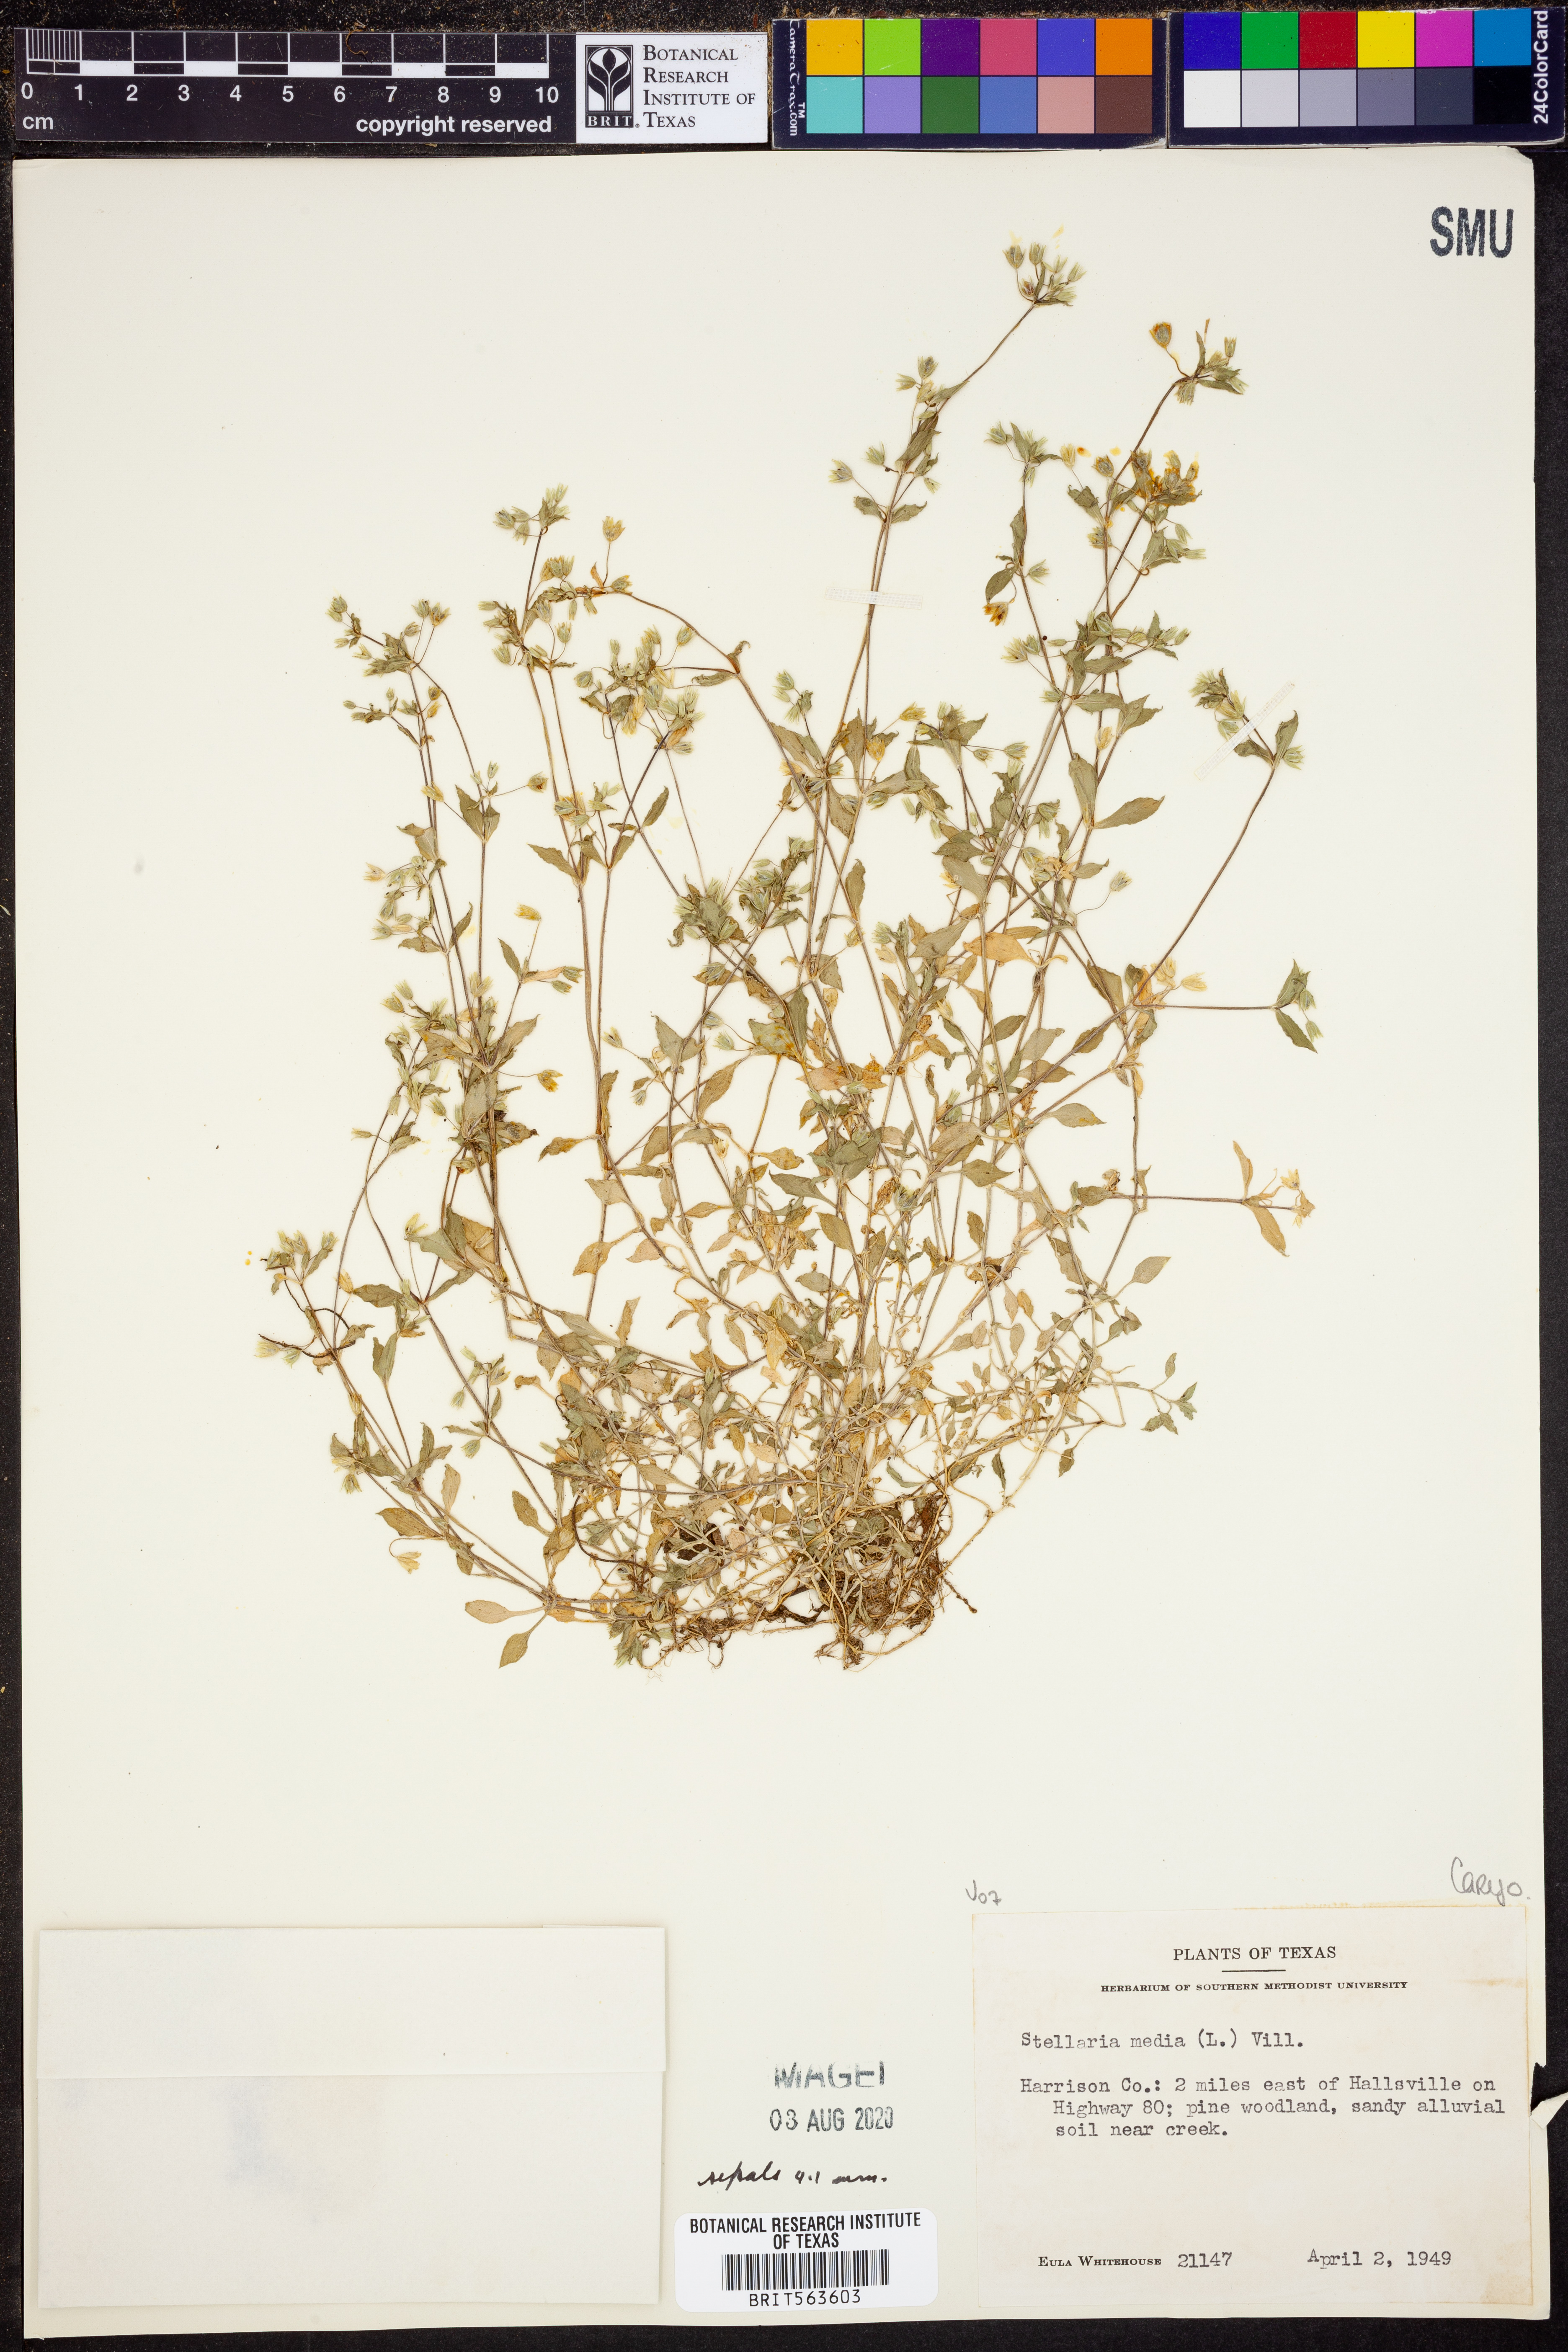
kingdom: Plantae
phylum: Tracheophyta
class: Magnoliopsida
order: Caryophyllales
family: Caryophyllaceae
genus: Stellaria
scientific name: Stellaria media
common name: Common chickweed
